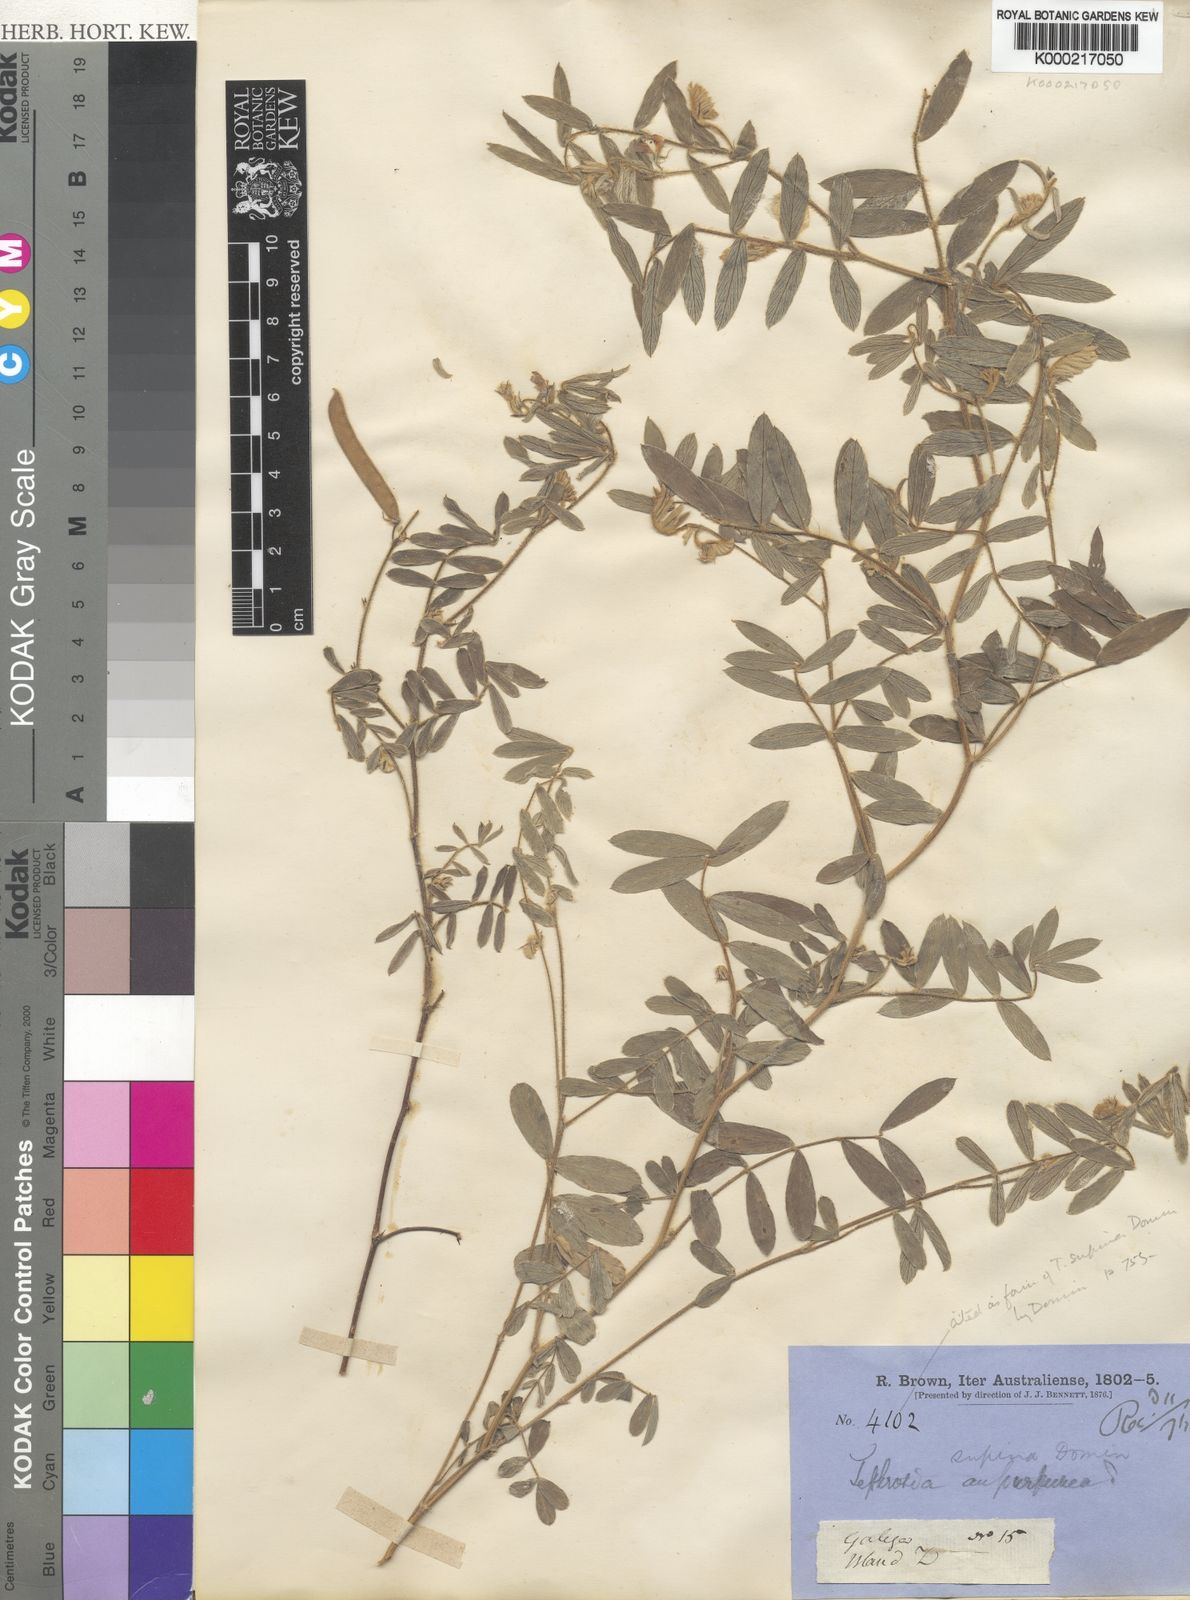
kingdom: Plantae
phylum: Tracheophyta
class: Magnoliopsida
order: Fabales
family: Fabaceae
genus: Tephrosia
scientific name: Tephrosia supina
